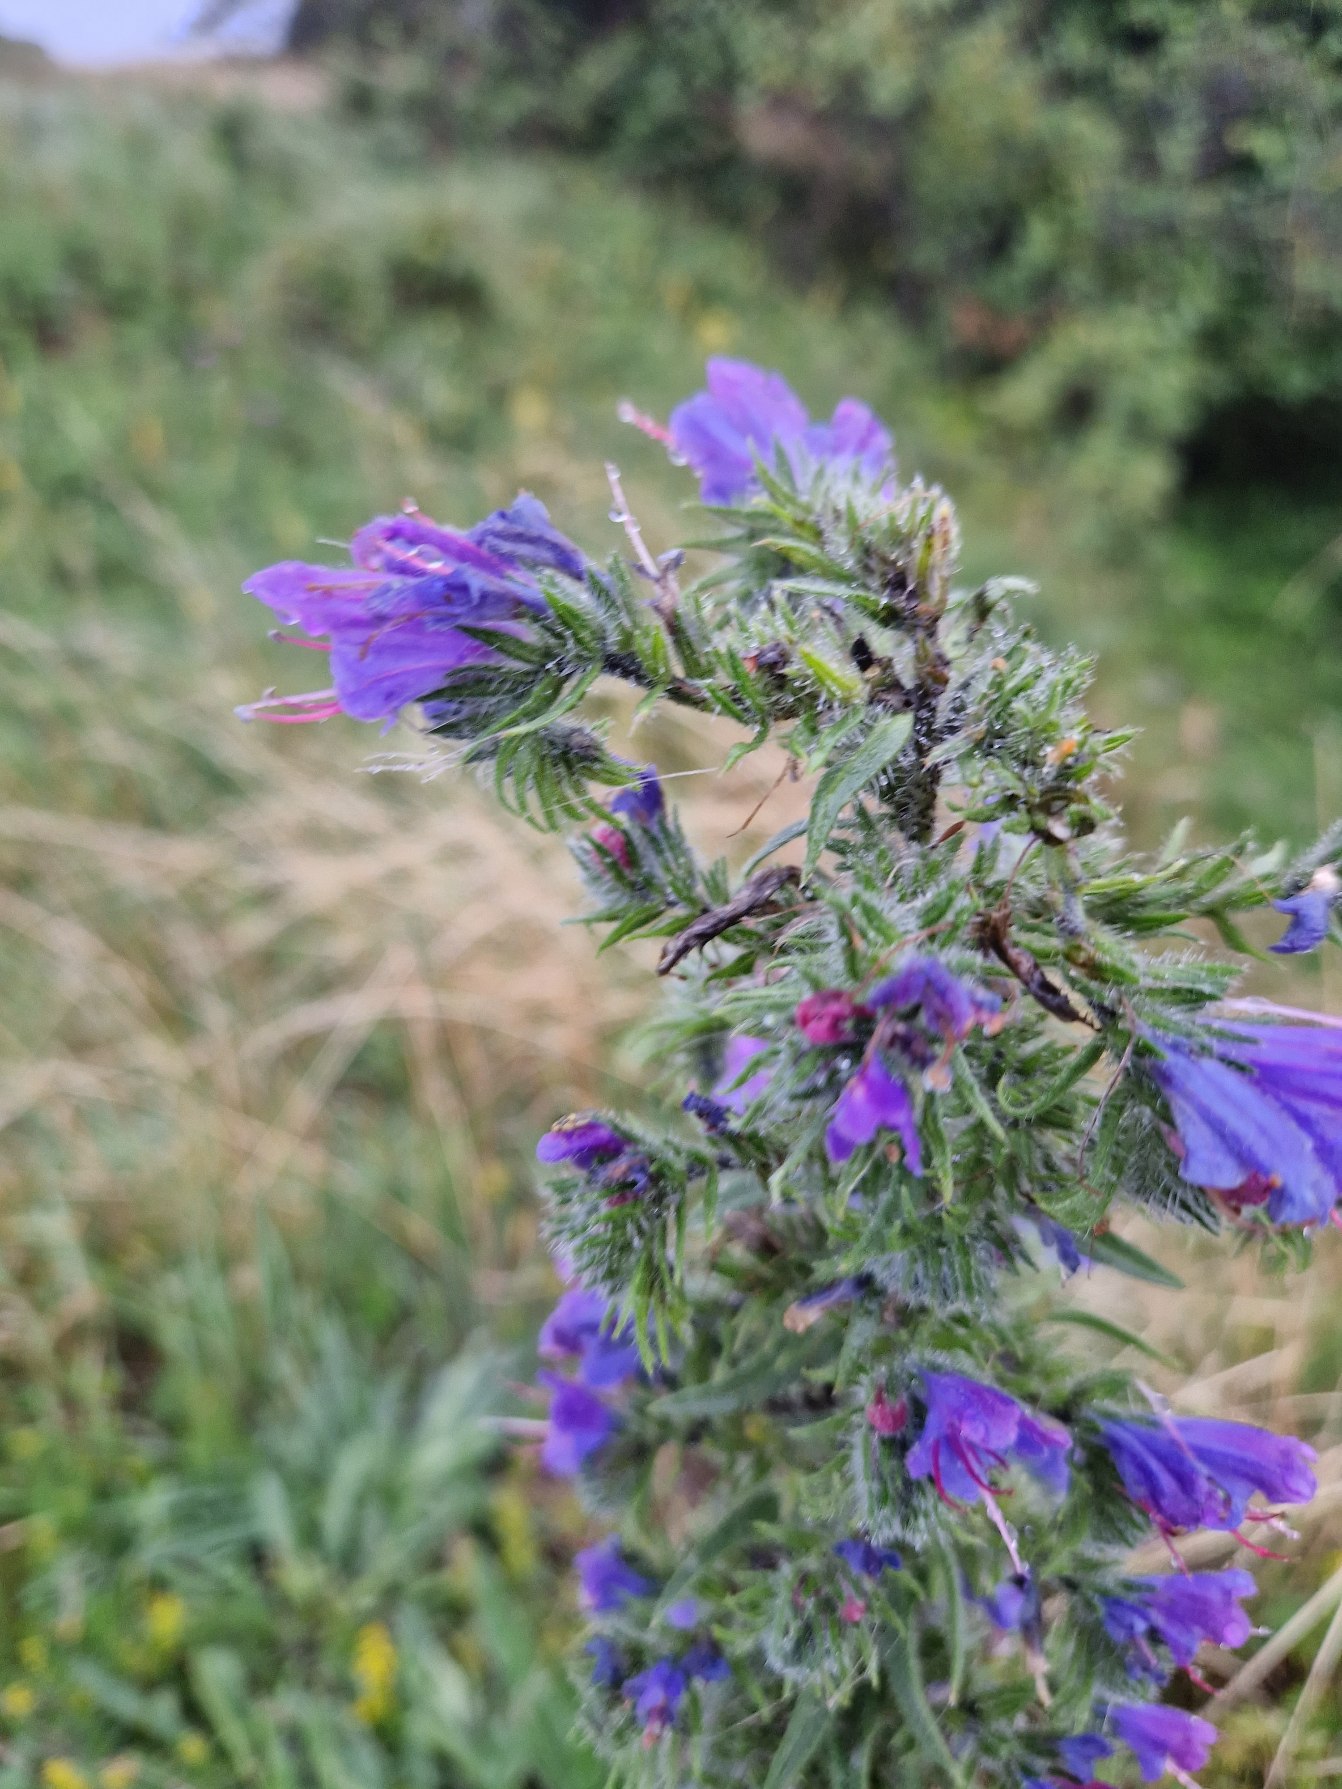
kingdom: Plantae
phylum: Tracheophyta
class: Magnoliopsida
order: Boraginales
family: Boraginaceae
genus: Echium
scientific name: Echium vulgare
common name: Slangehoved
